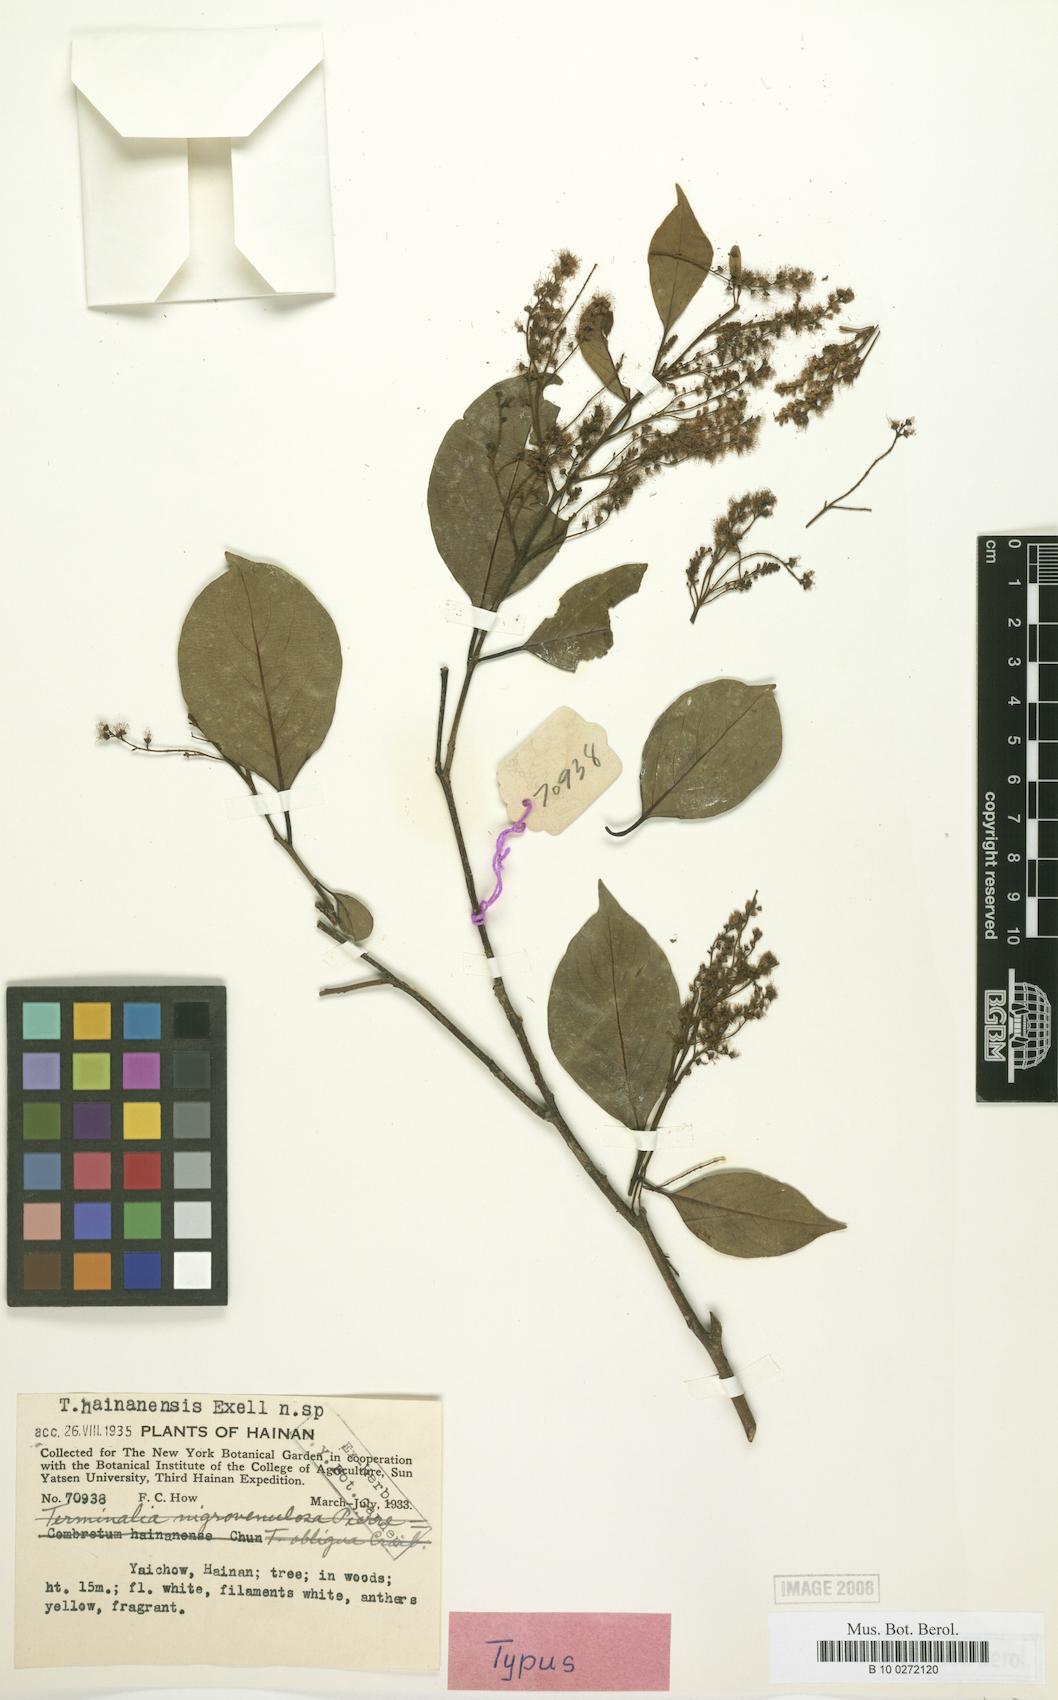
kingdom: Plantae
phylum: Tracheophyta
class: Magnoliopsida
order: Myrtales
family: Combretaceae
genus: Terminalia
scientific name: Terminalia triptera
